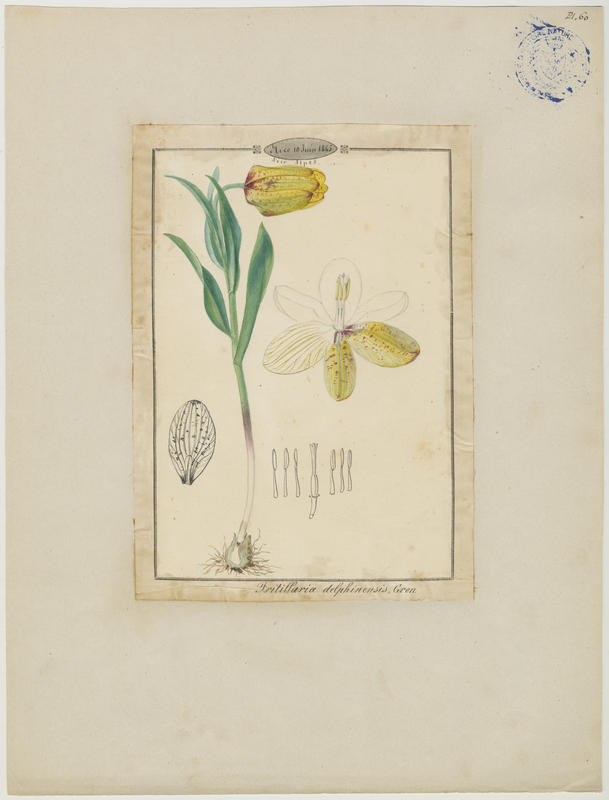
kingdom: Plantae
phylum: Tracheophyta
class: Liliopsida
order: Liliales
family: Liliaceae
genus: Fritillaria
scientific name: Fritillaria tubiformis
